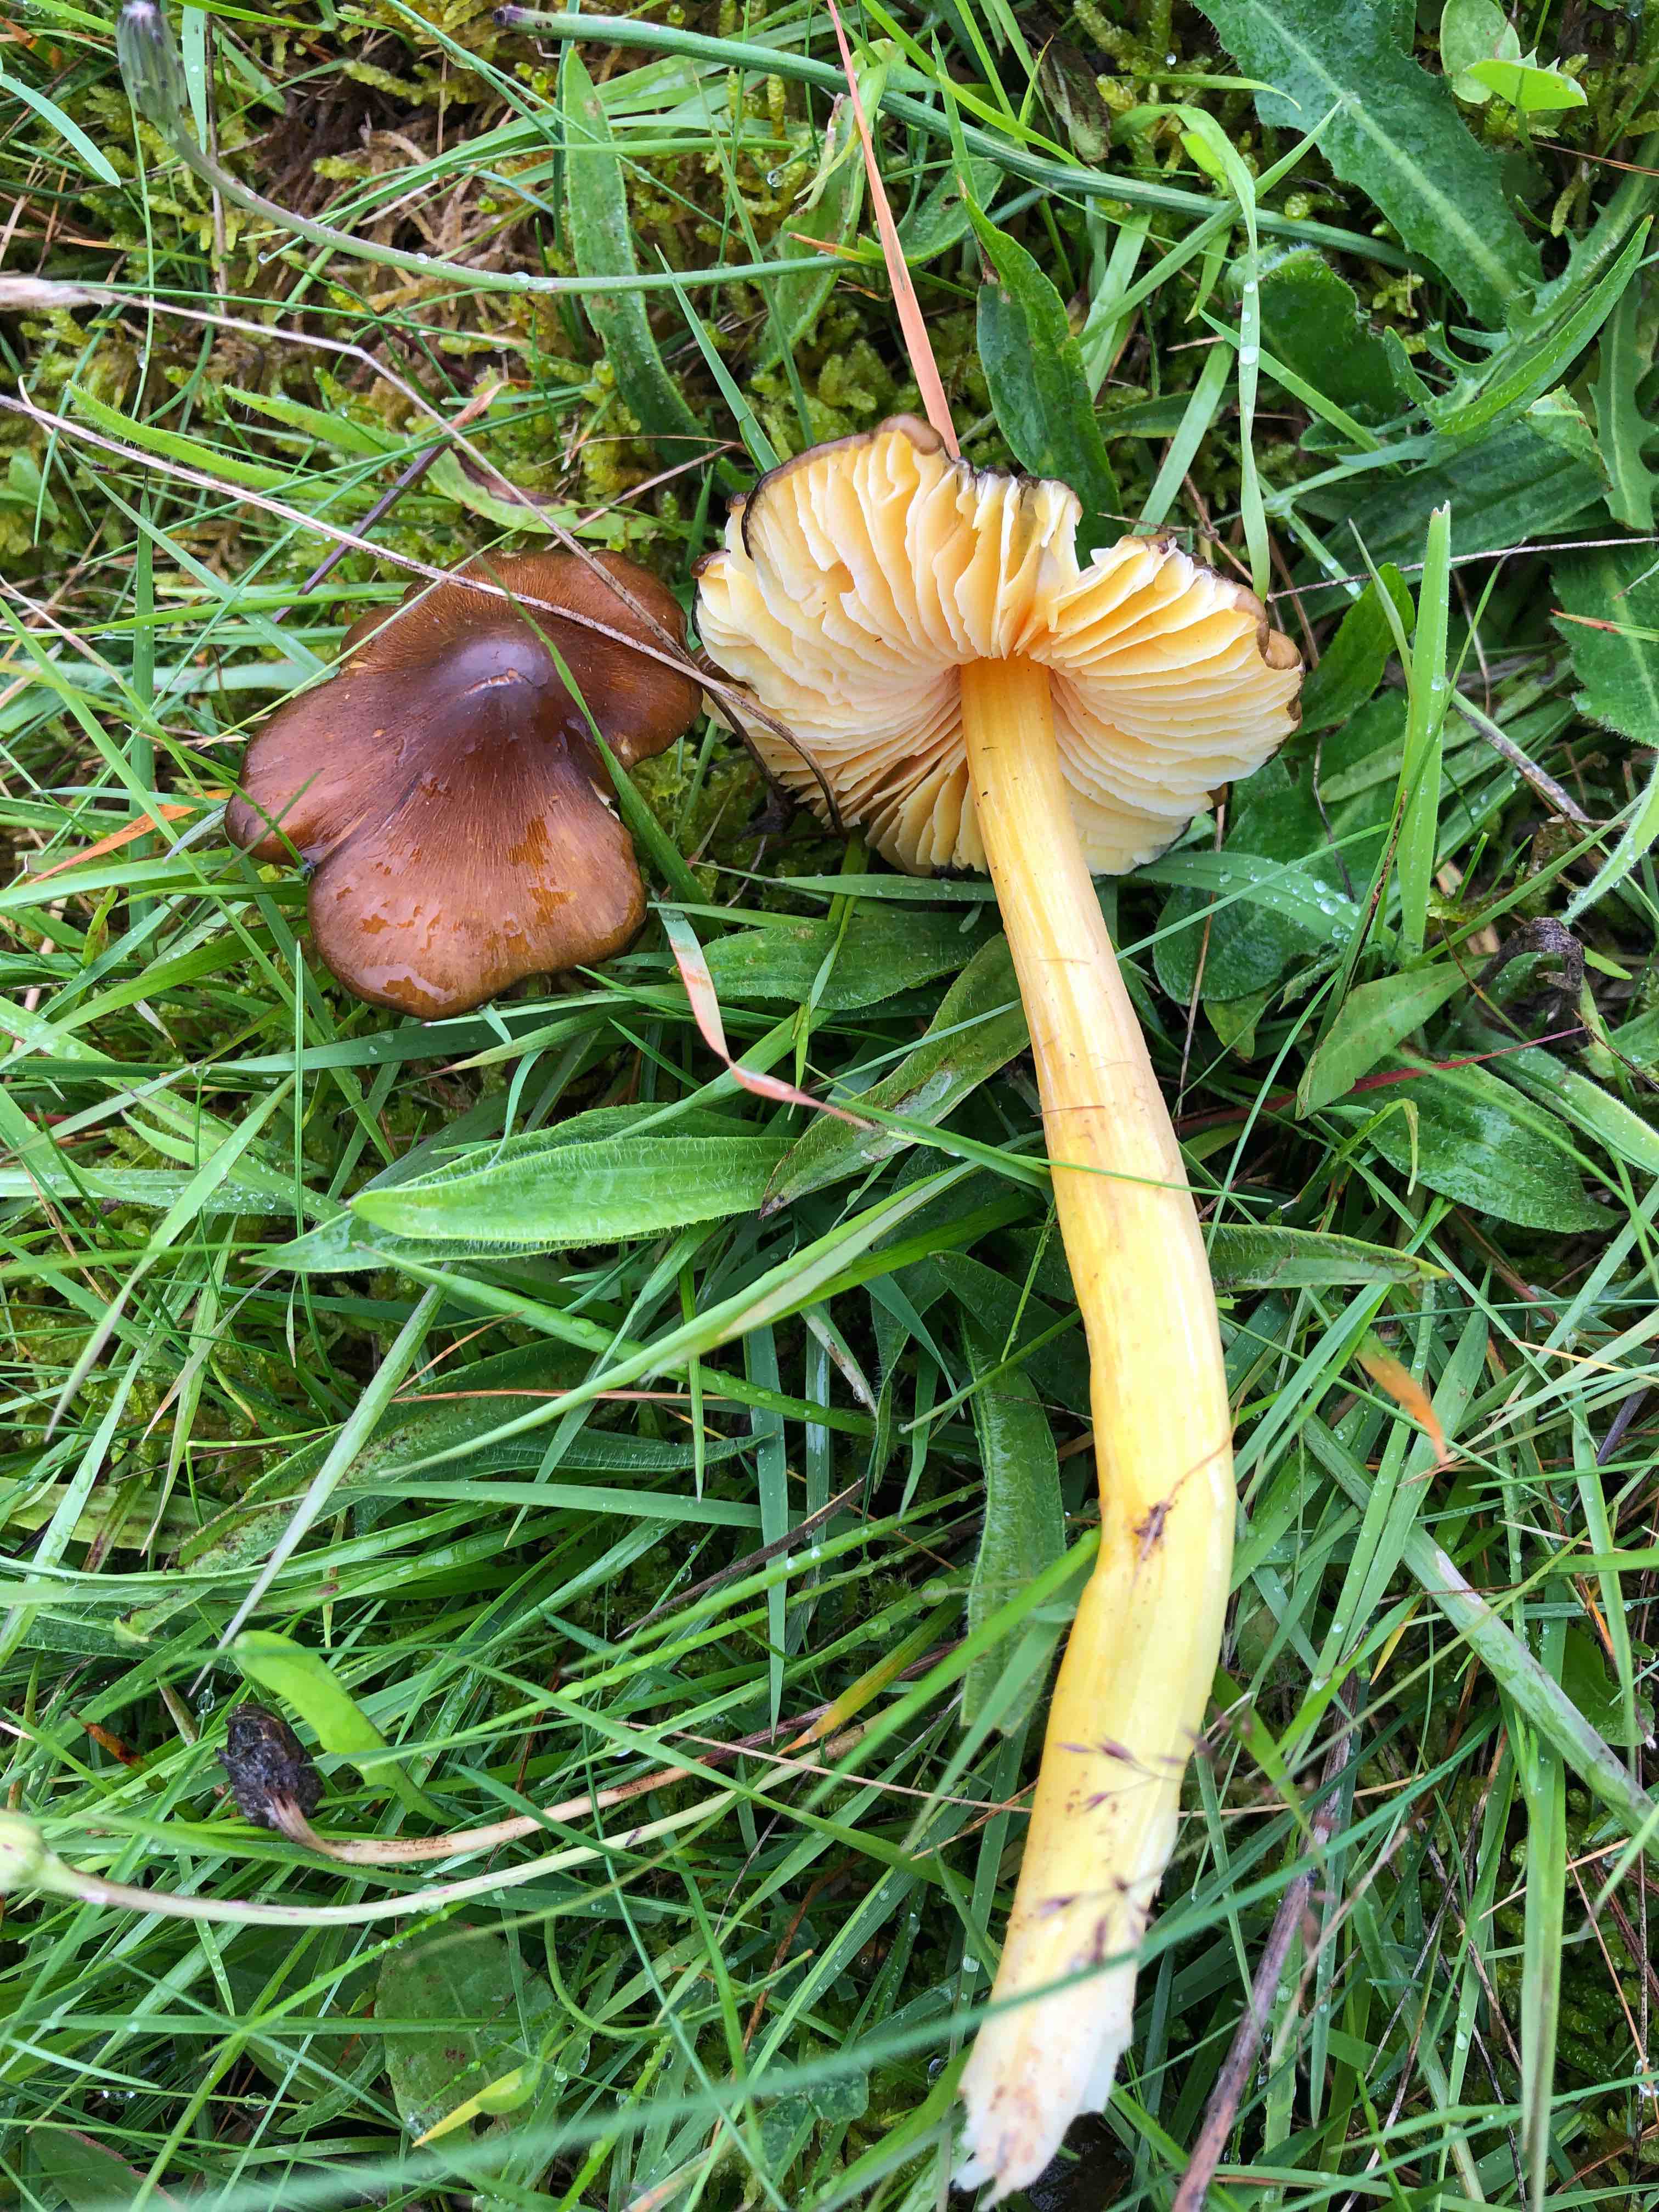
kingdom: Fungi
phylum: Basidiomycota
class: Agaricomycetes
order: Agaricales
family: Hygrophoraceae
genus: Hygrocybe
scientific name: Hygrocybe spadicea
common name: daddelbrun vokshat
